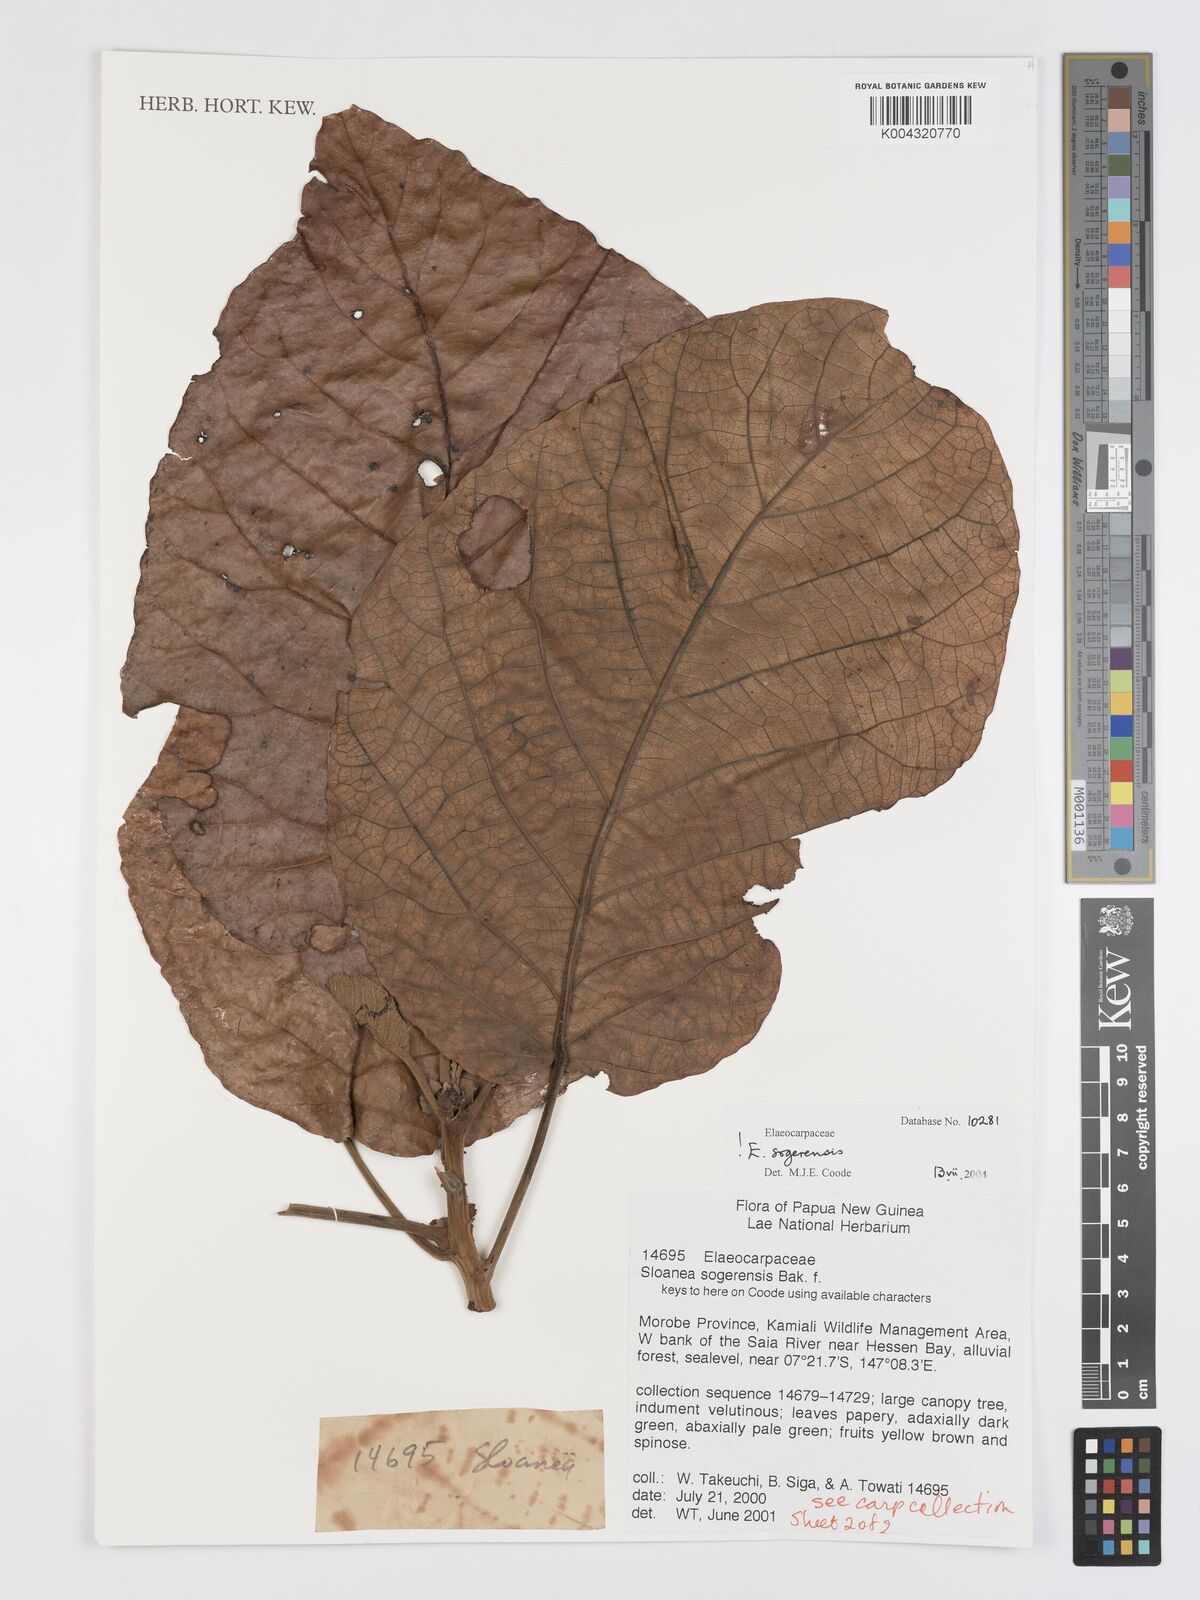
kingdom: Plantae
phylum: Tracheophyta
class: Magnoliopsida
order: Oxalidales
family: Elaeocarpaceae
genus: Sloanea
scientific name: Sloanea sogerensis
